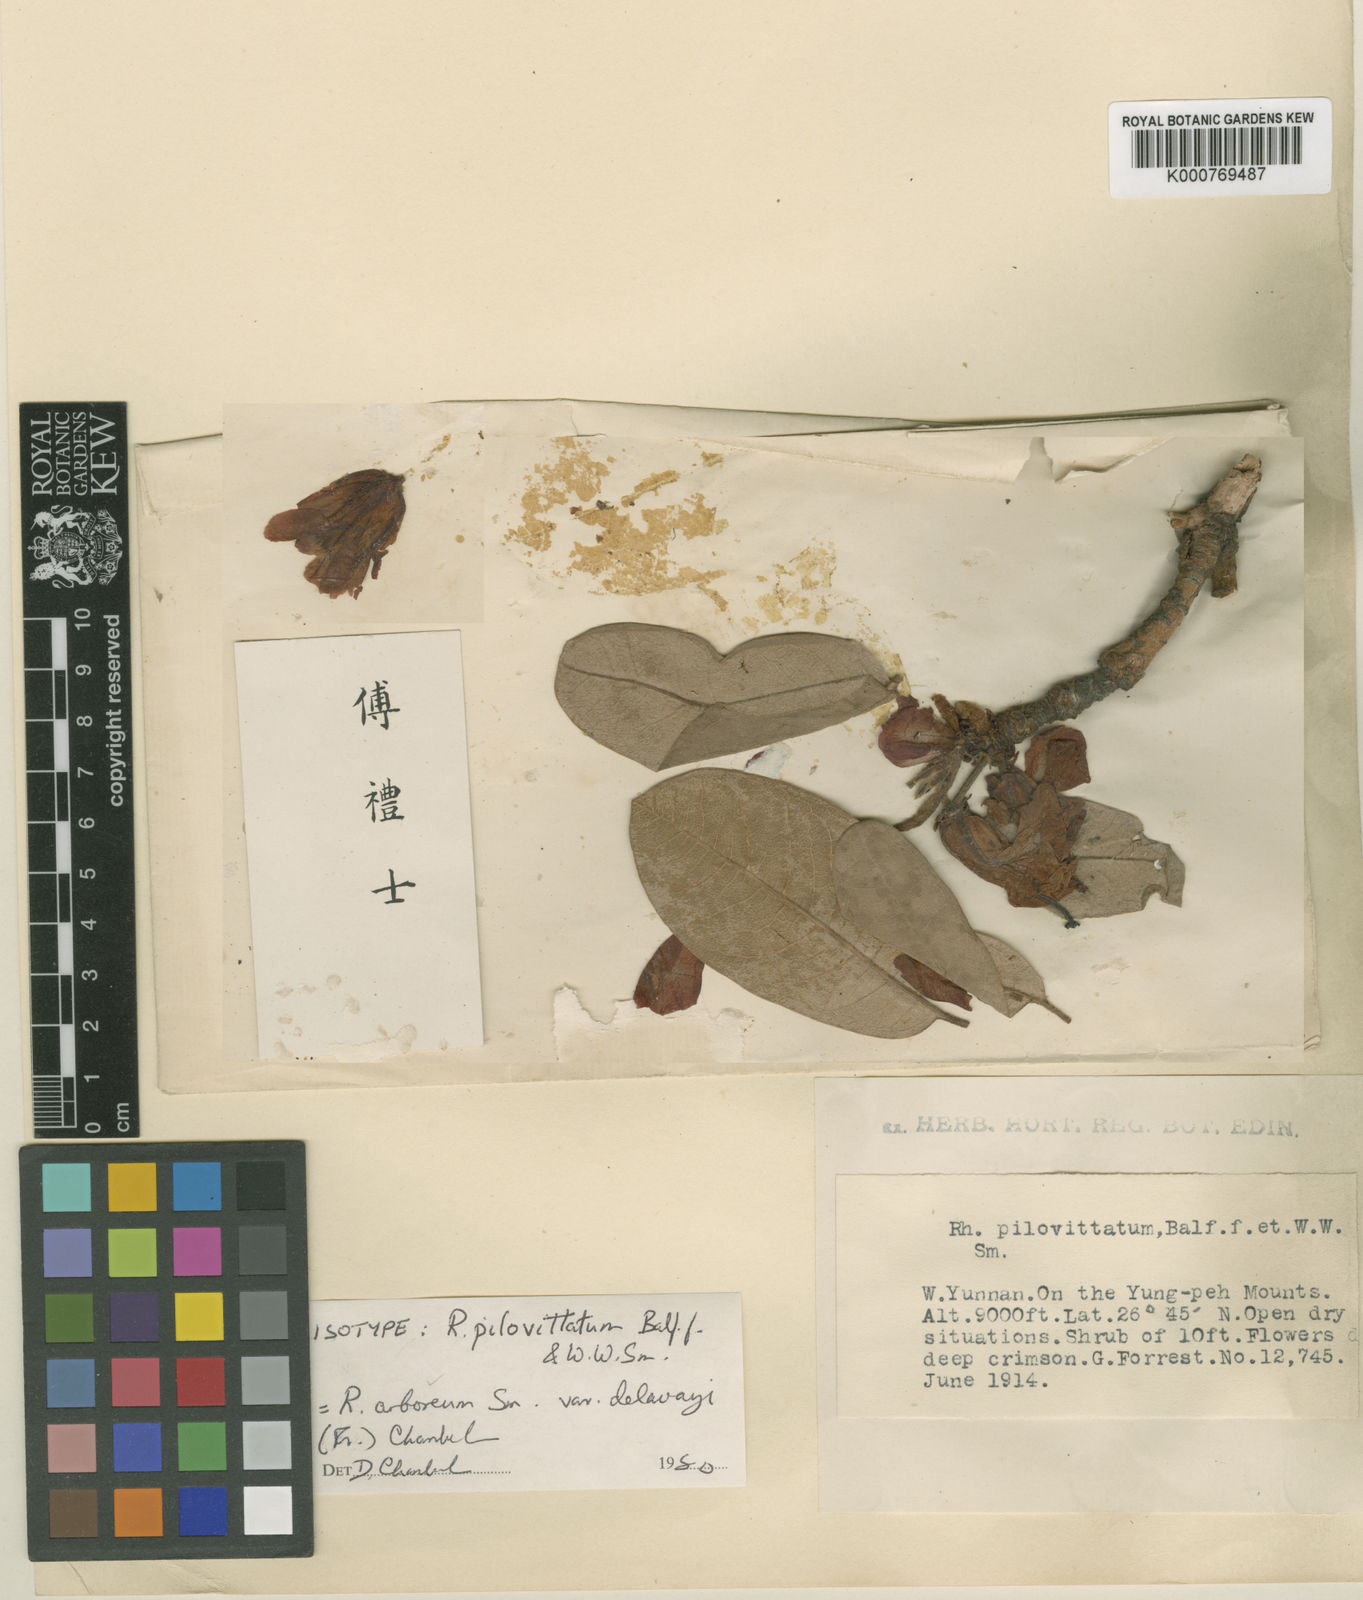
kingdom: Plantae
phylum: Tracheophyta
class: Magnoliopsida
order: Ericales
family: Ericaceae
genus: Rhododendron
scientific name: Rhododendron delavayi
